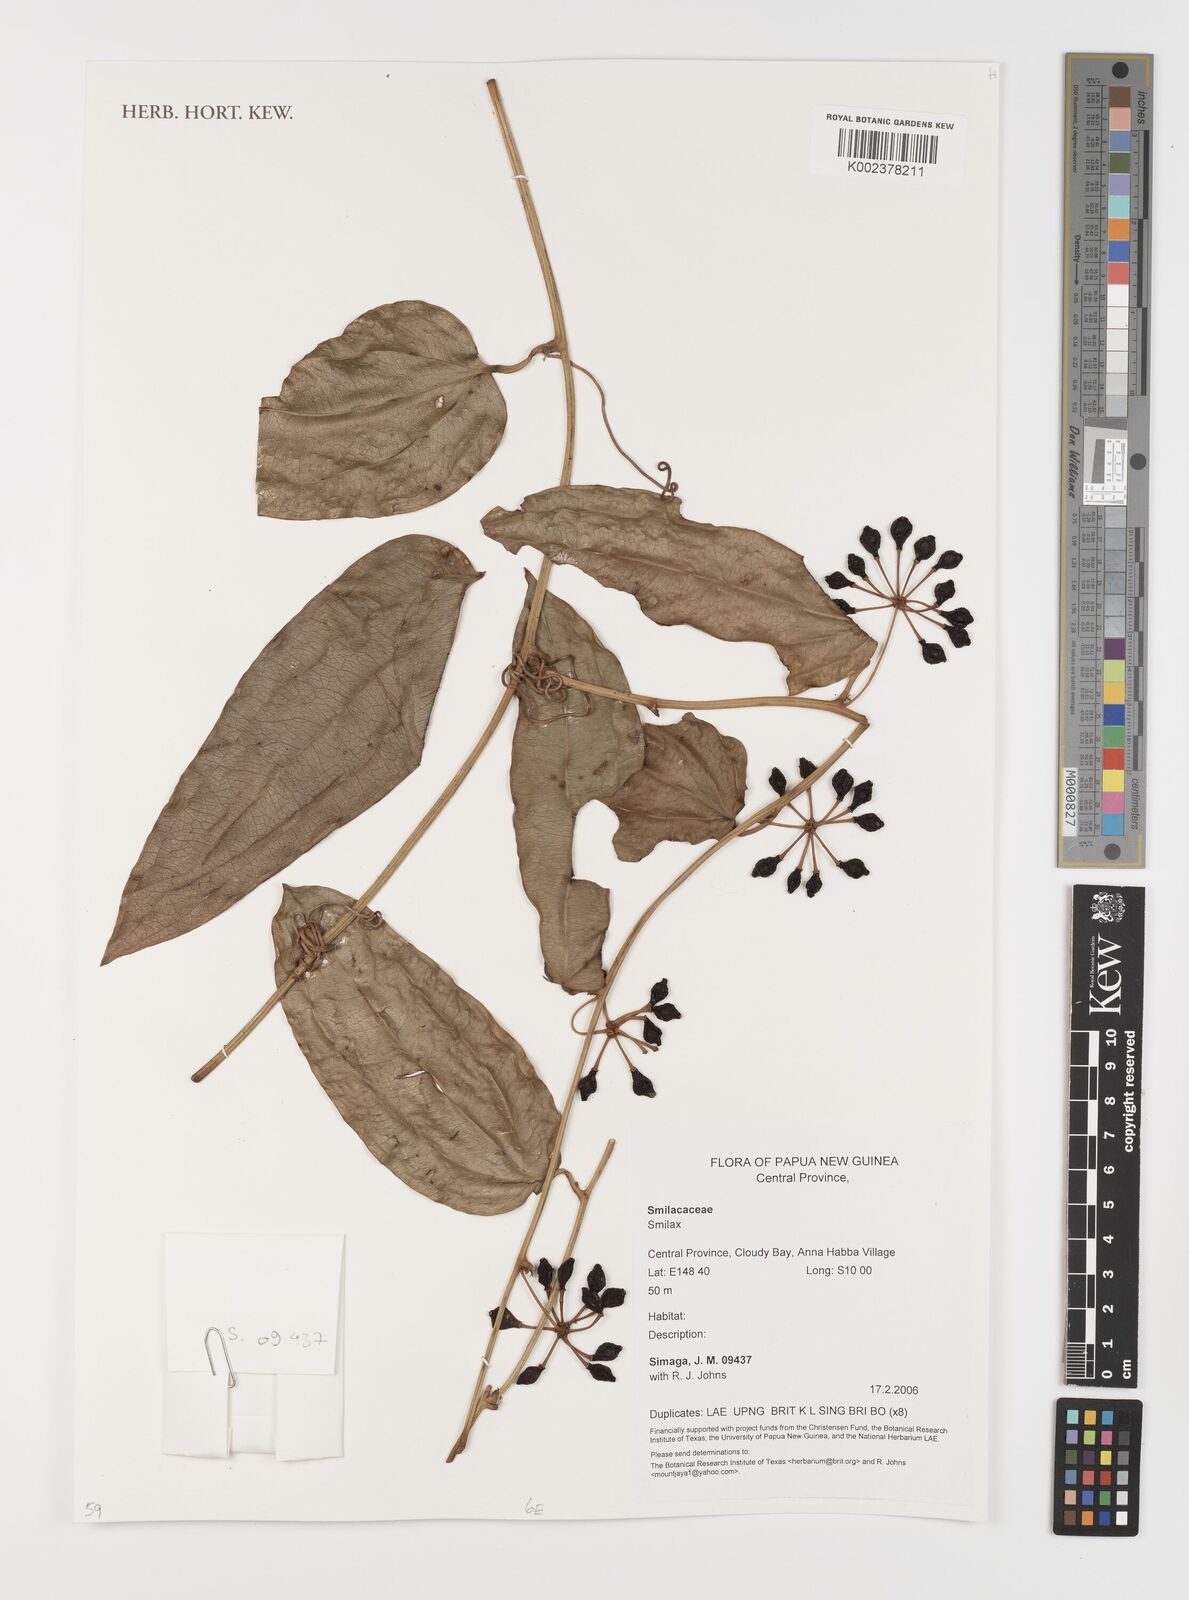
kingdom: Plantae
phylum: Tracheophyta
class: Liliopsida
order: Liliales
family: Smilacaceae
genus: Smilax
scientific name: Smilax
